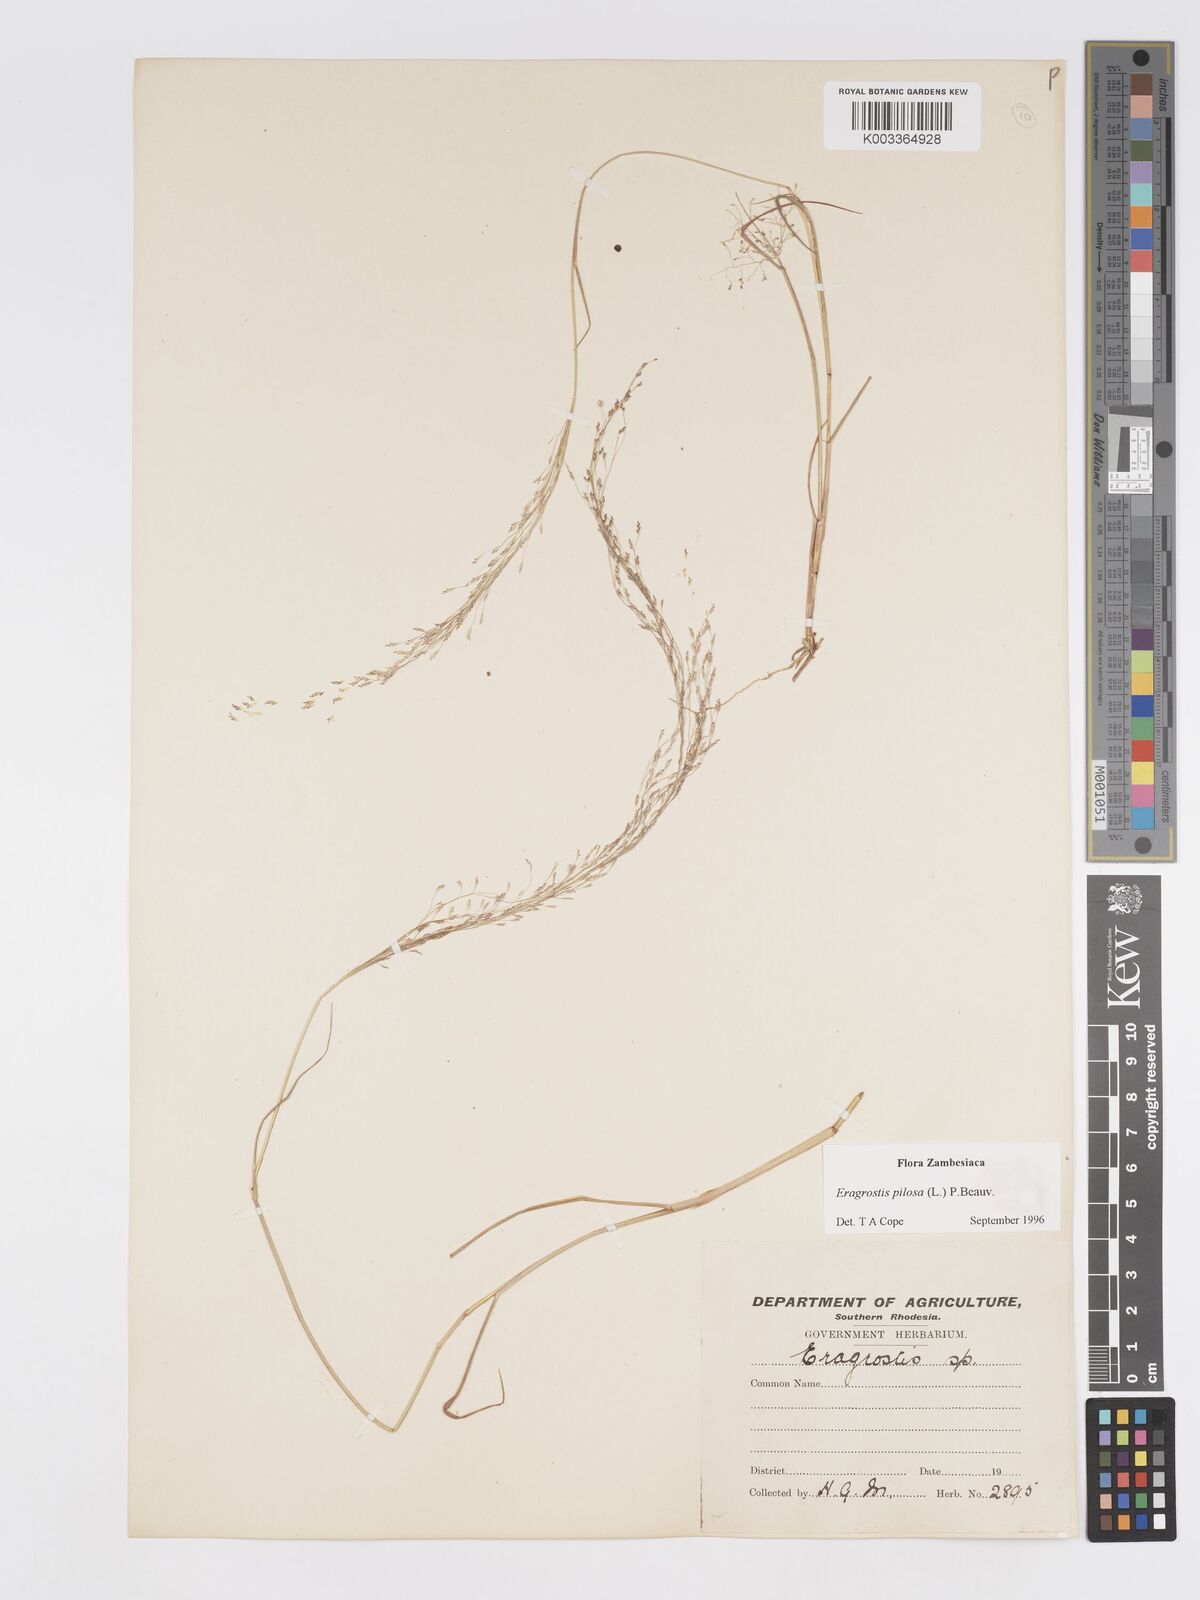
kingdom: Plantae
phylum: Tracheophyta
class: Liliopsida
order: Poales
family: Poaceae
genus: Eragrostis
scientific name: Eragrostis pilosa
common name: Indian lovegrass
